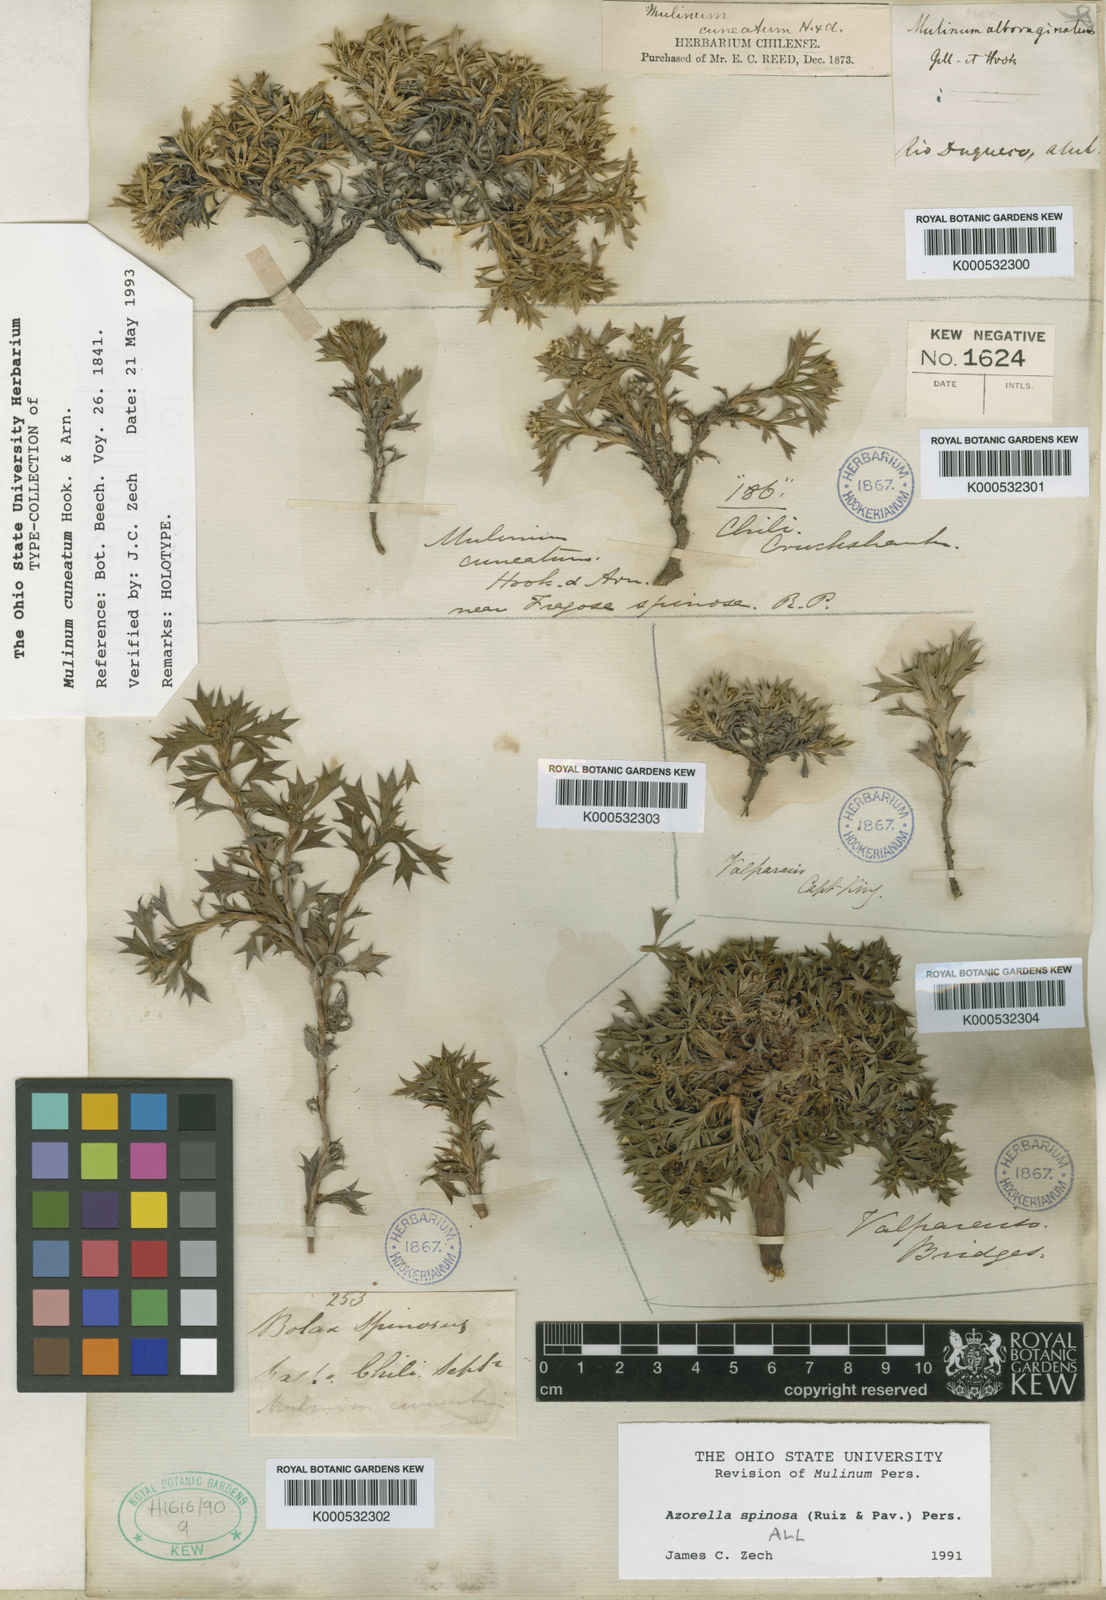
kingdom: Plantae
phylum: Tracheophyta
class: Magnoliopsida
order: Apiales
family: Apiaceae
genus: Azorella
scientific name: Azorella spinosa
